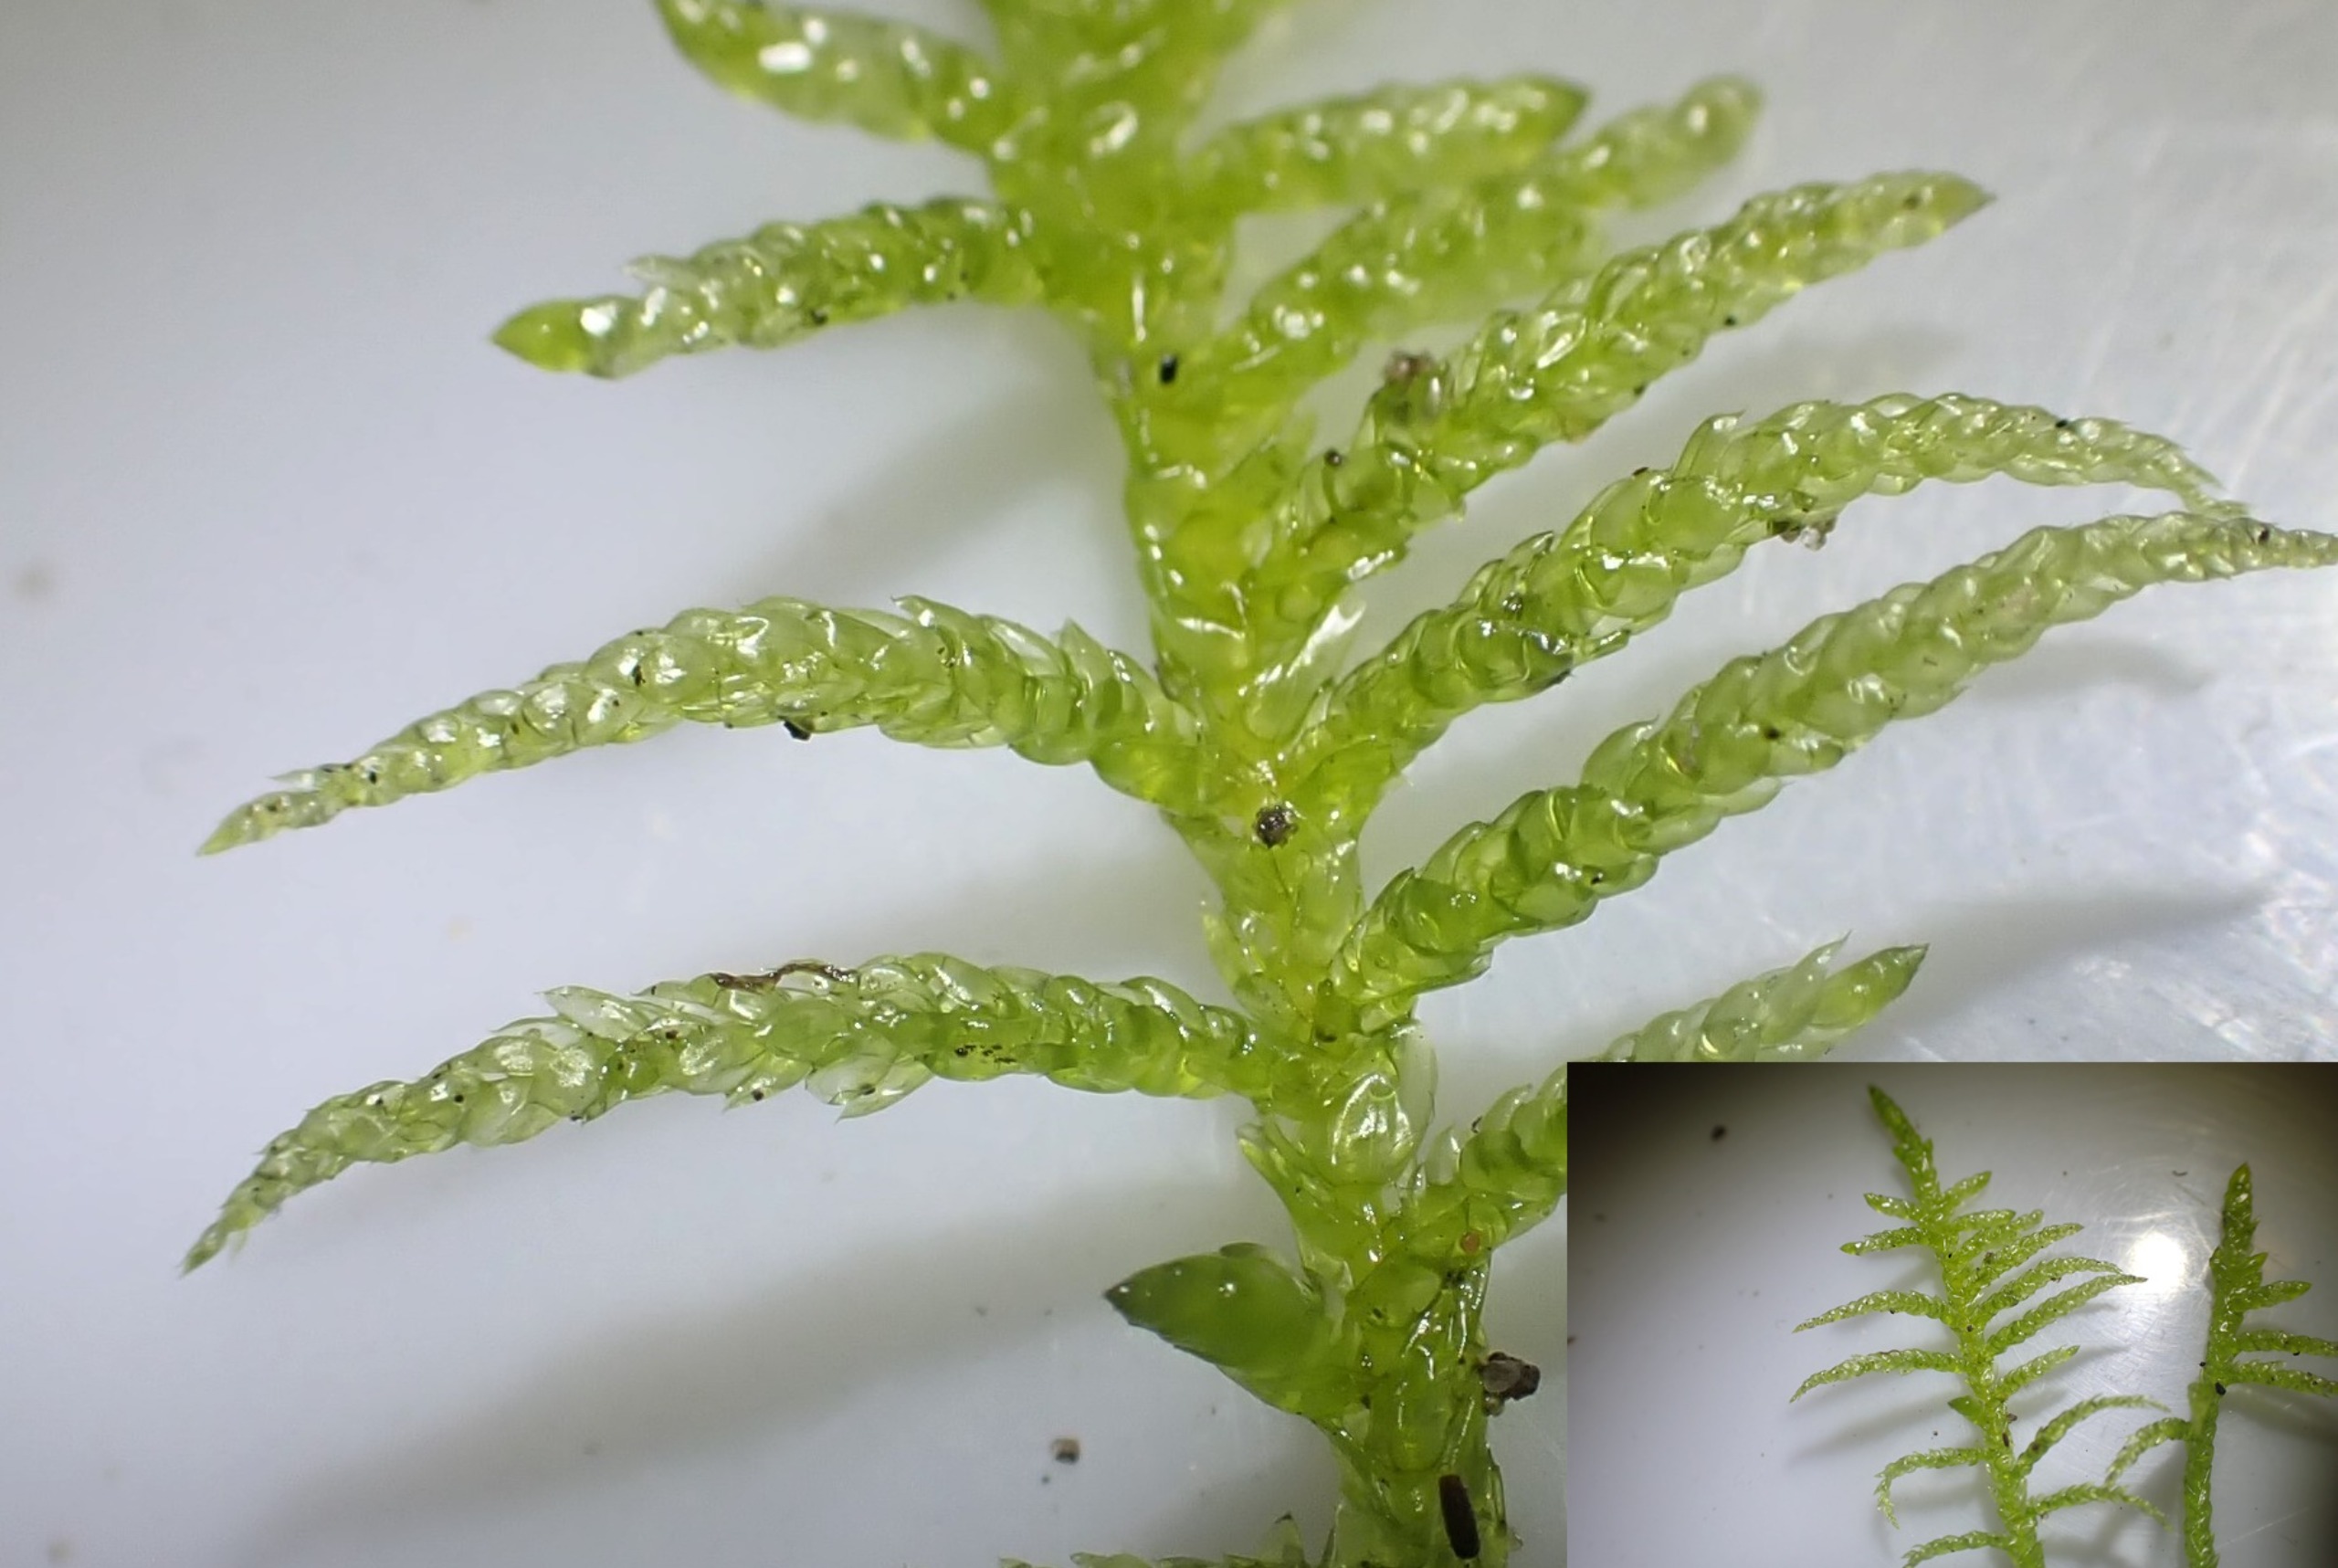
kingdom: Plantae
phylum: Bryophyta
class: Bryopsida
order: Hypnales
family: Brachytheciaceae
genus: Pseudoscleropodium
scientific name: Pseudoscleropodium purum
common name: Hulbladet fedtmos
